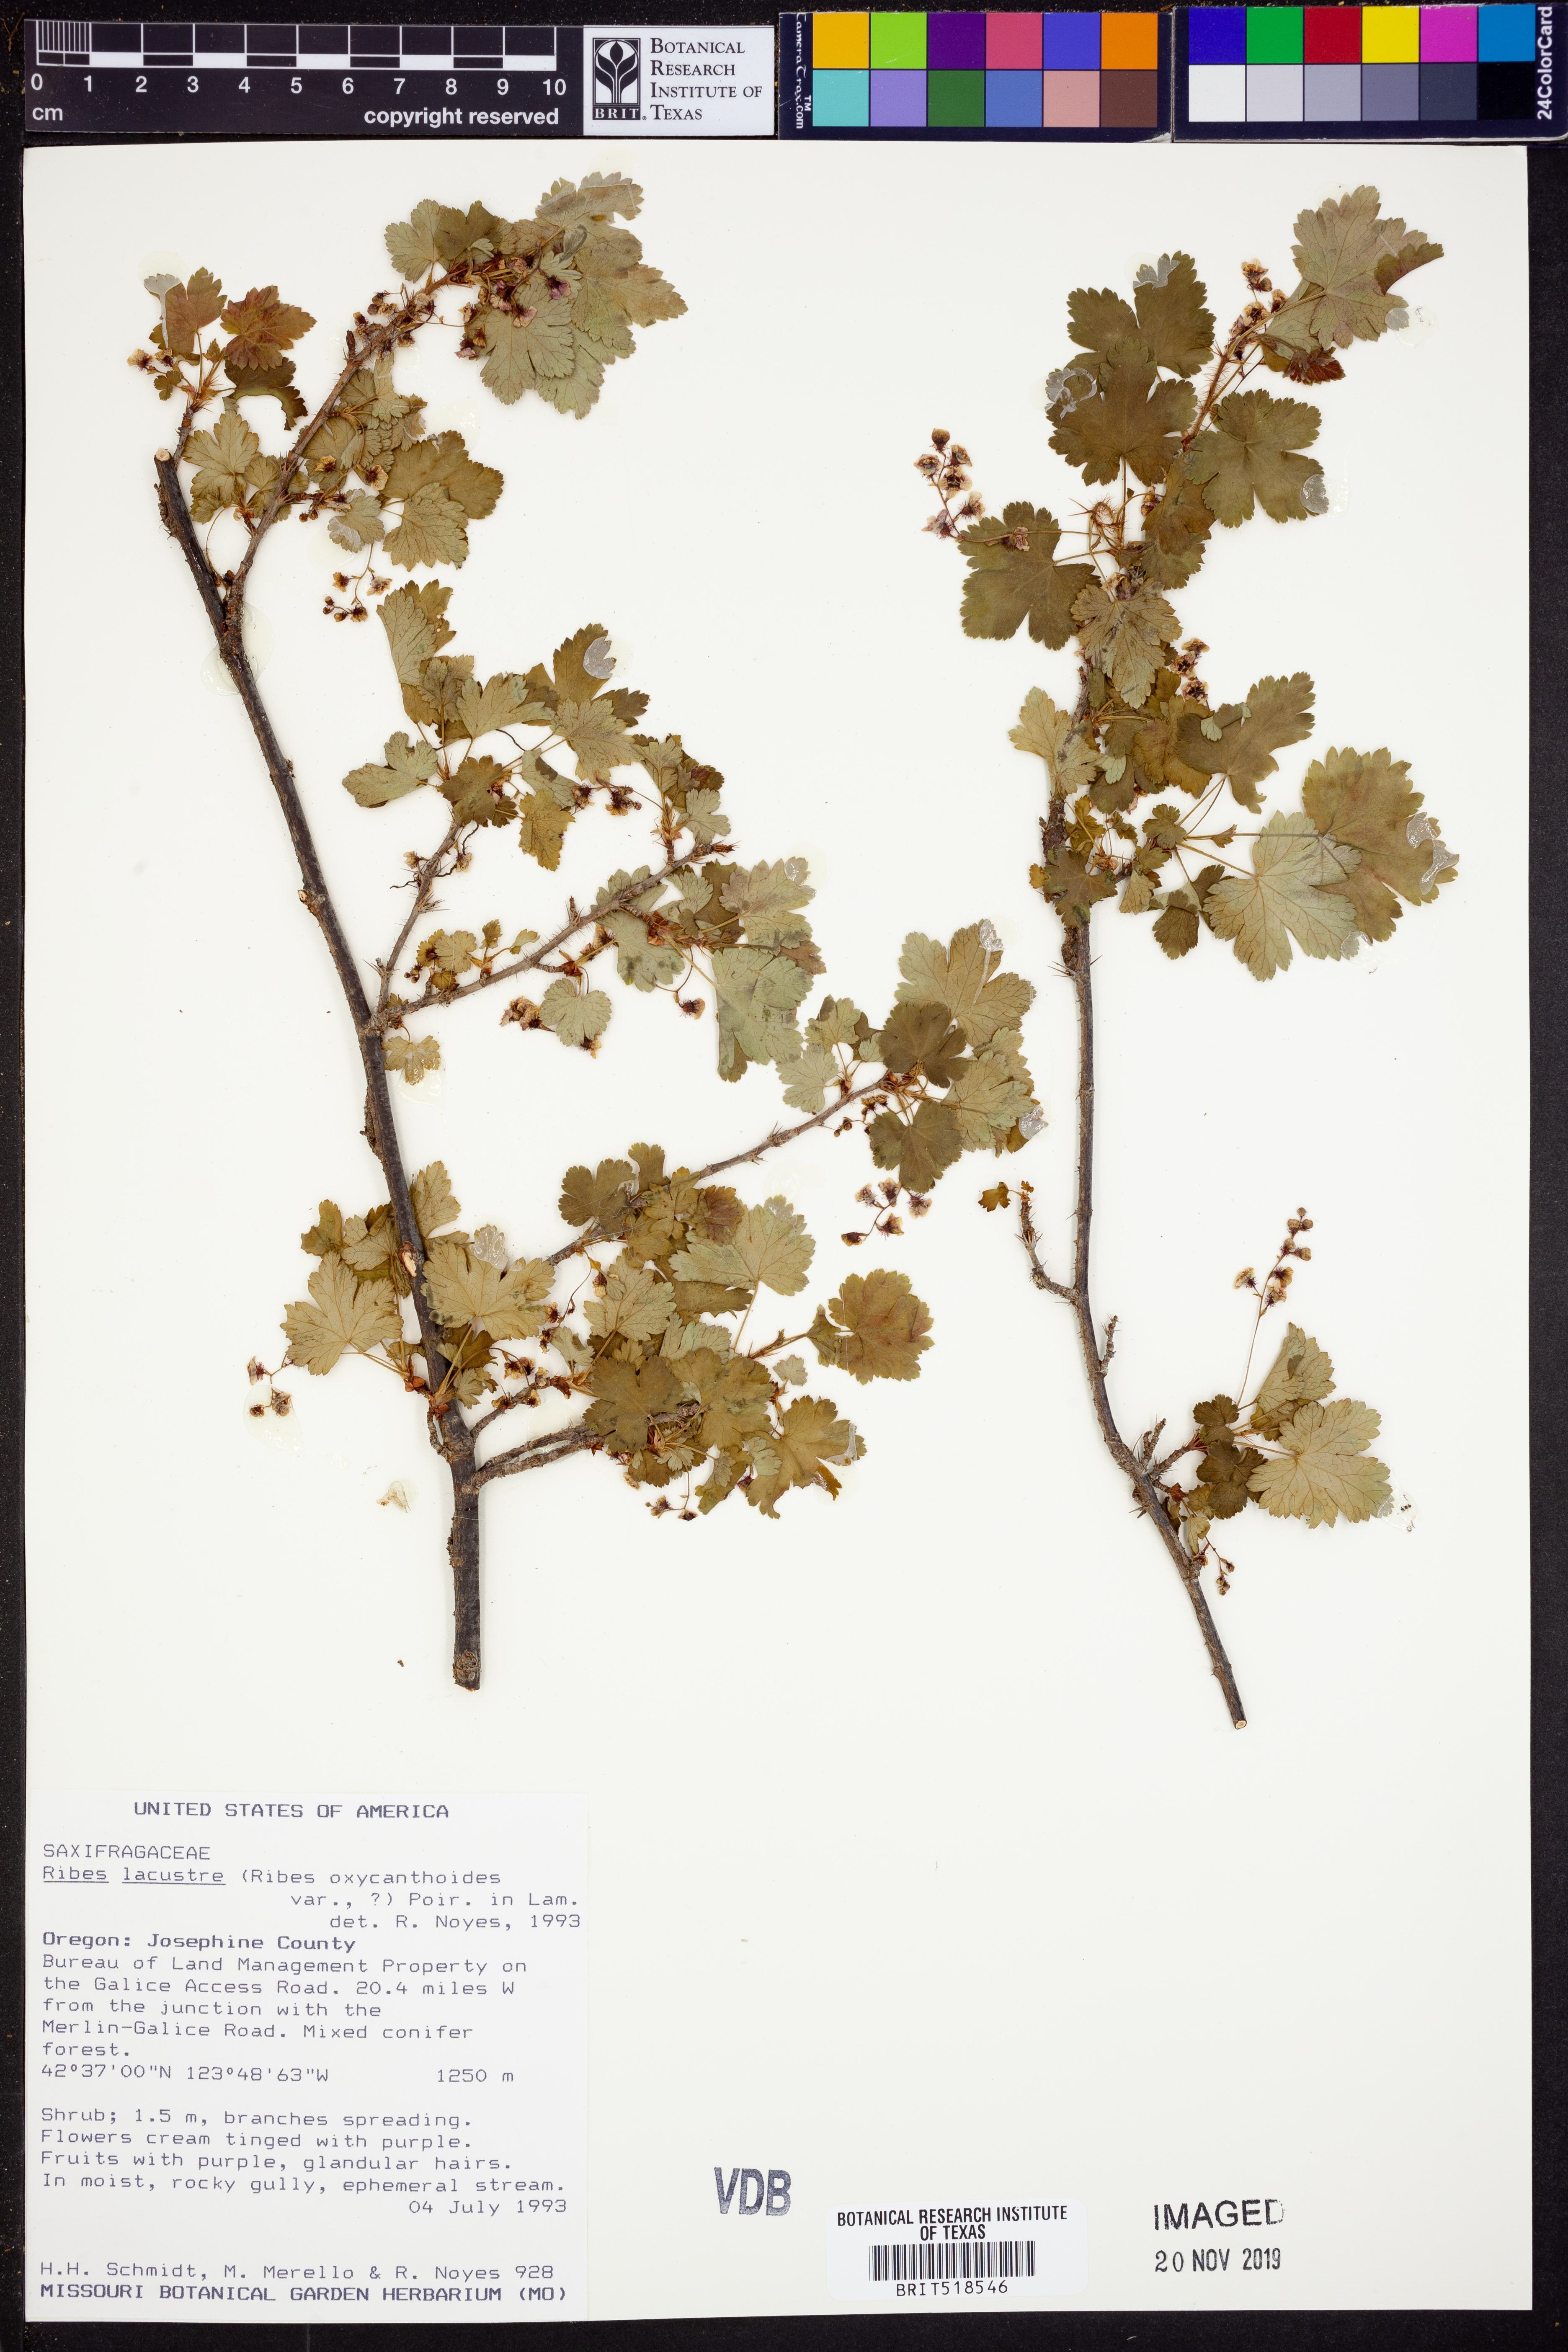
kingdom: Plantae
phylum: Tracheophyta
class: Magnoliopsida
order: Saxifragales
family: Grossulariaceae
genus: Ribes
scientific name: Ribes lacustre
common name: Black gooseberry
